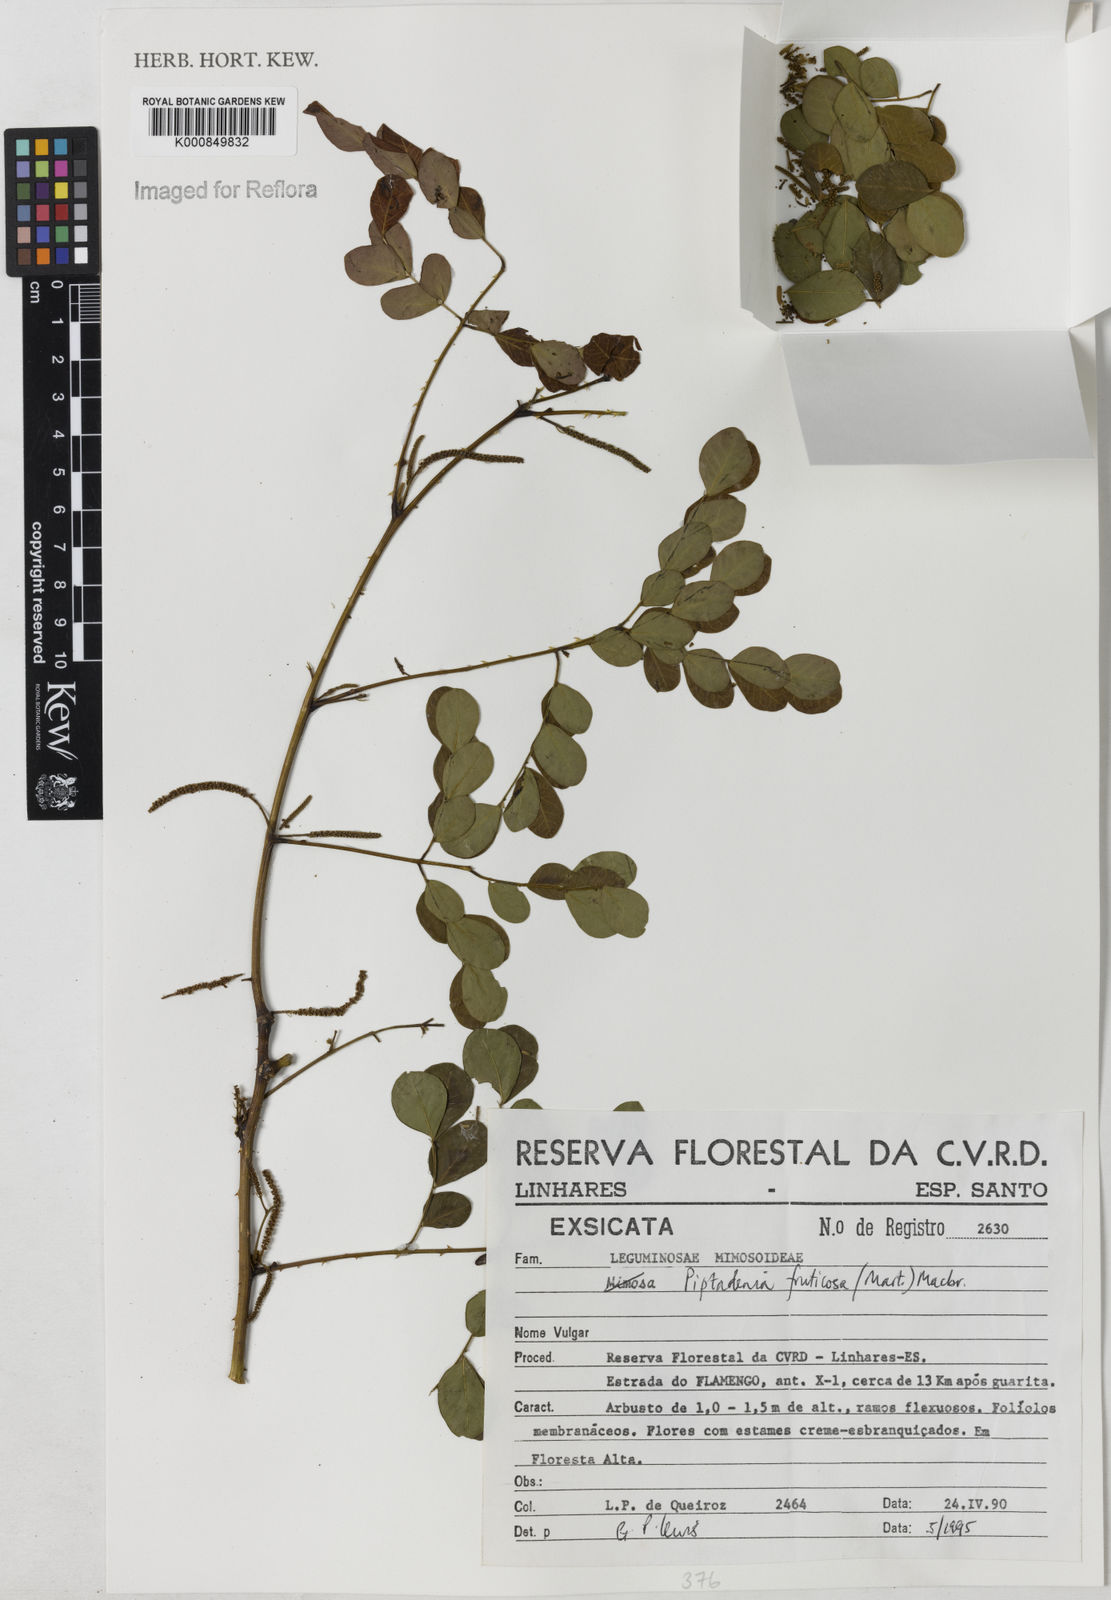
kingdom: Plantae
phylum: Tracheophyta
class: Magnoliopsida
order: Fabales
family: Fabaceae
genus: Piptadenia
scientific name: Piptadenia adiantoides
